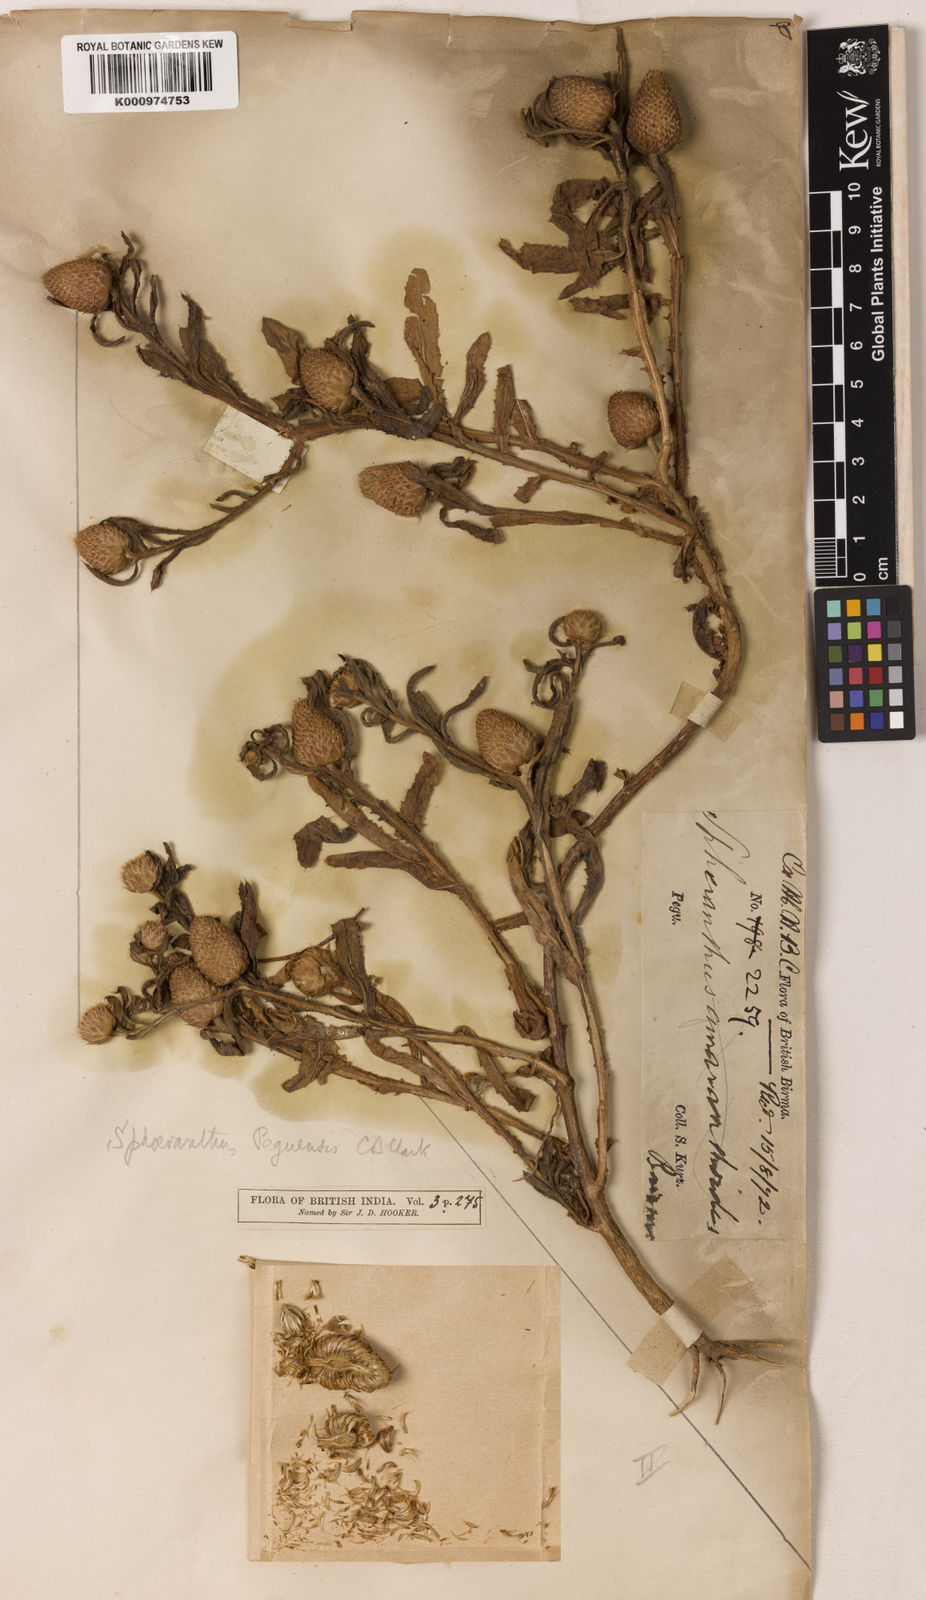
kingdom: Plantae
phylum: Tracheophyta
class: Magnoliopsida
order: Asterales
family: Asteraceae
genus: Sphaeranthus
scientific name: Sphaeranthus peguensis
